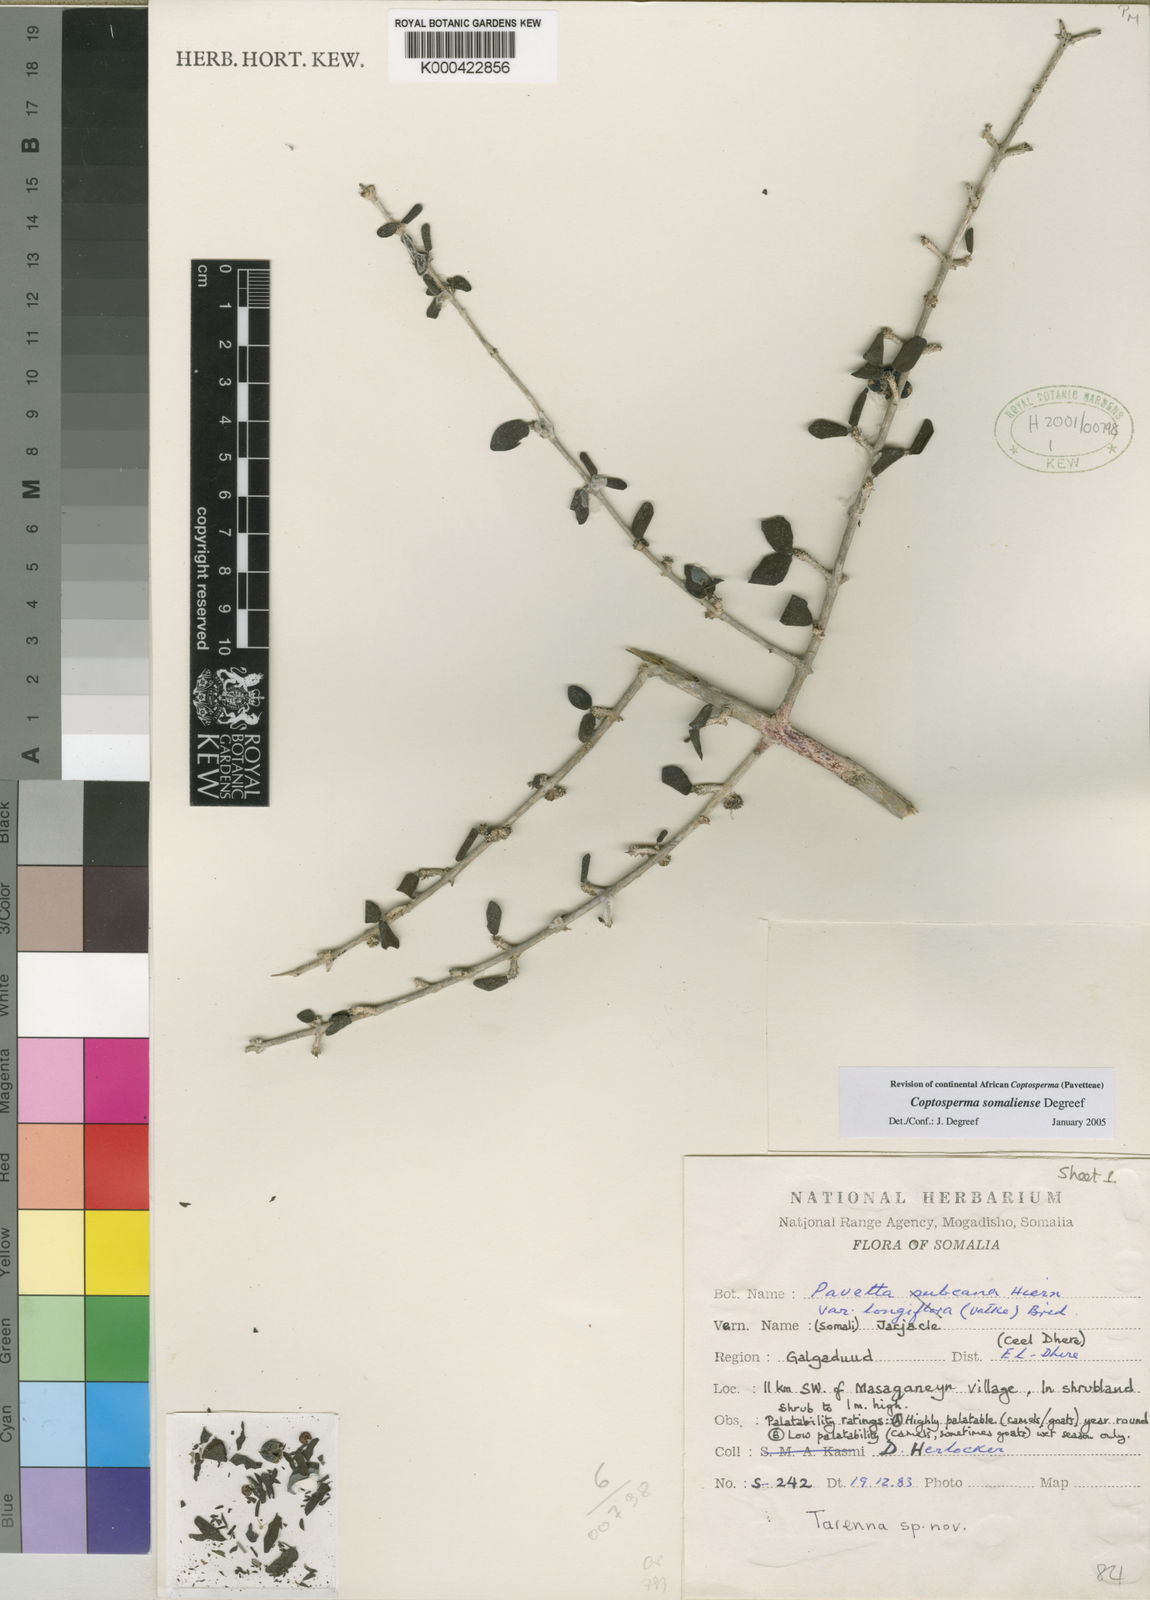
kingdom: Plantae
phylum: Tracheophyta
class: Magnoliopsida
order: Gentianales
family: Rubiaceae
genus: Coptosperma
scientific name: Coptosperma somaliense
